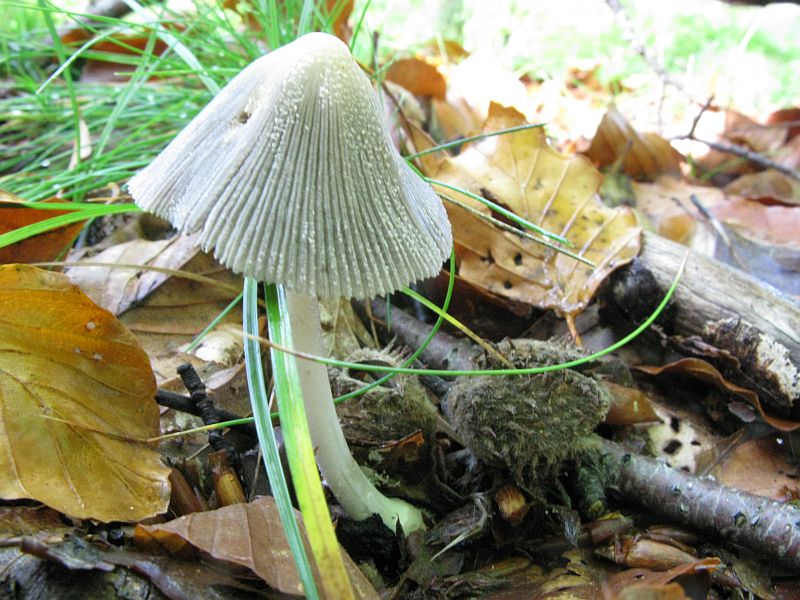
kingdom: Fungi
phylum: Basidiomycota
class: Agaricomycetes
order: Agaricales
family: Psathyrellaceae
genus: Coprinellus
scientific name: Coprinellus domesticus
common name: hus-blækhat
